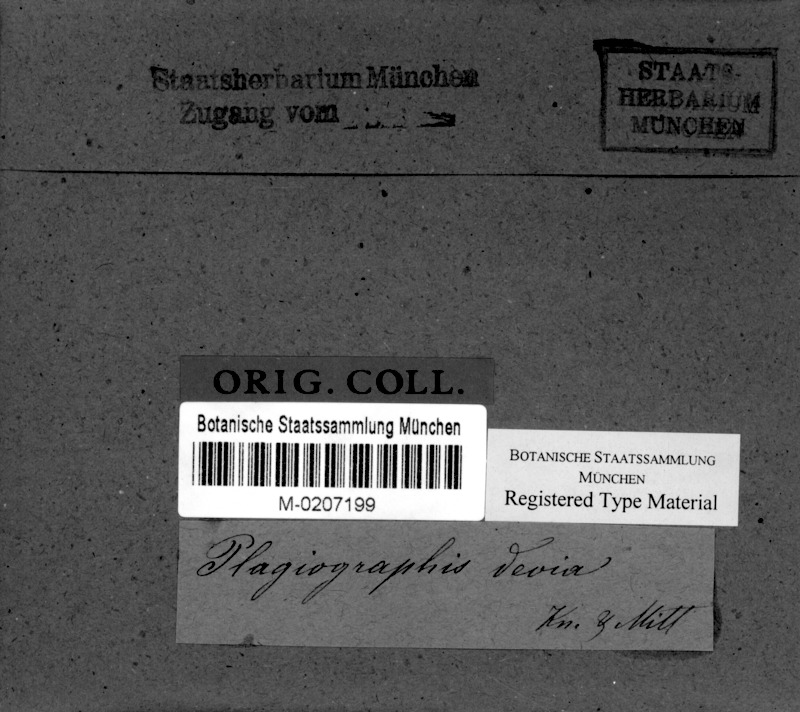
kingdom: Fungi
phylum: Ascomycota
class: Arthoniomycetes
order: Arthoniales
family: Opegraphaceae
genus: Opegrapha
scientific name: Opegrapha
